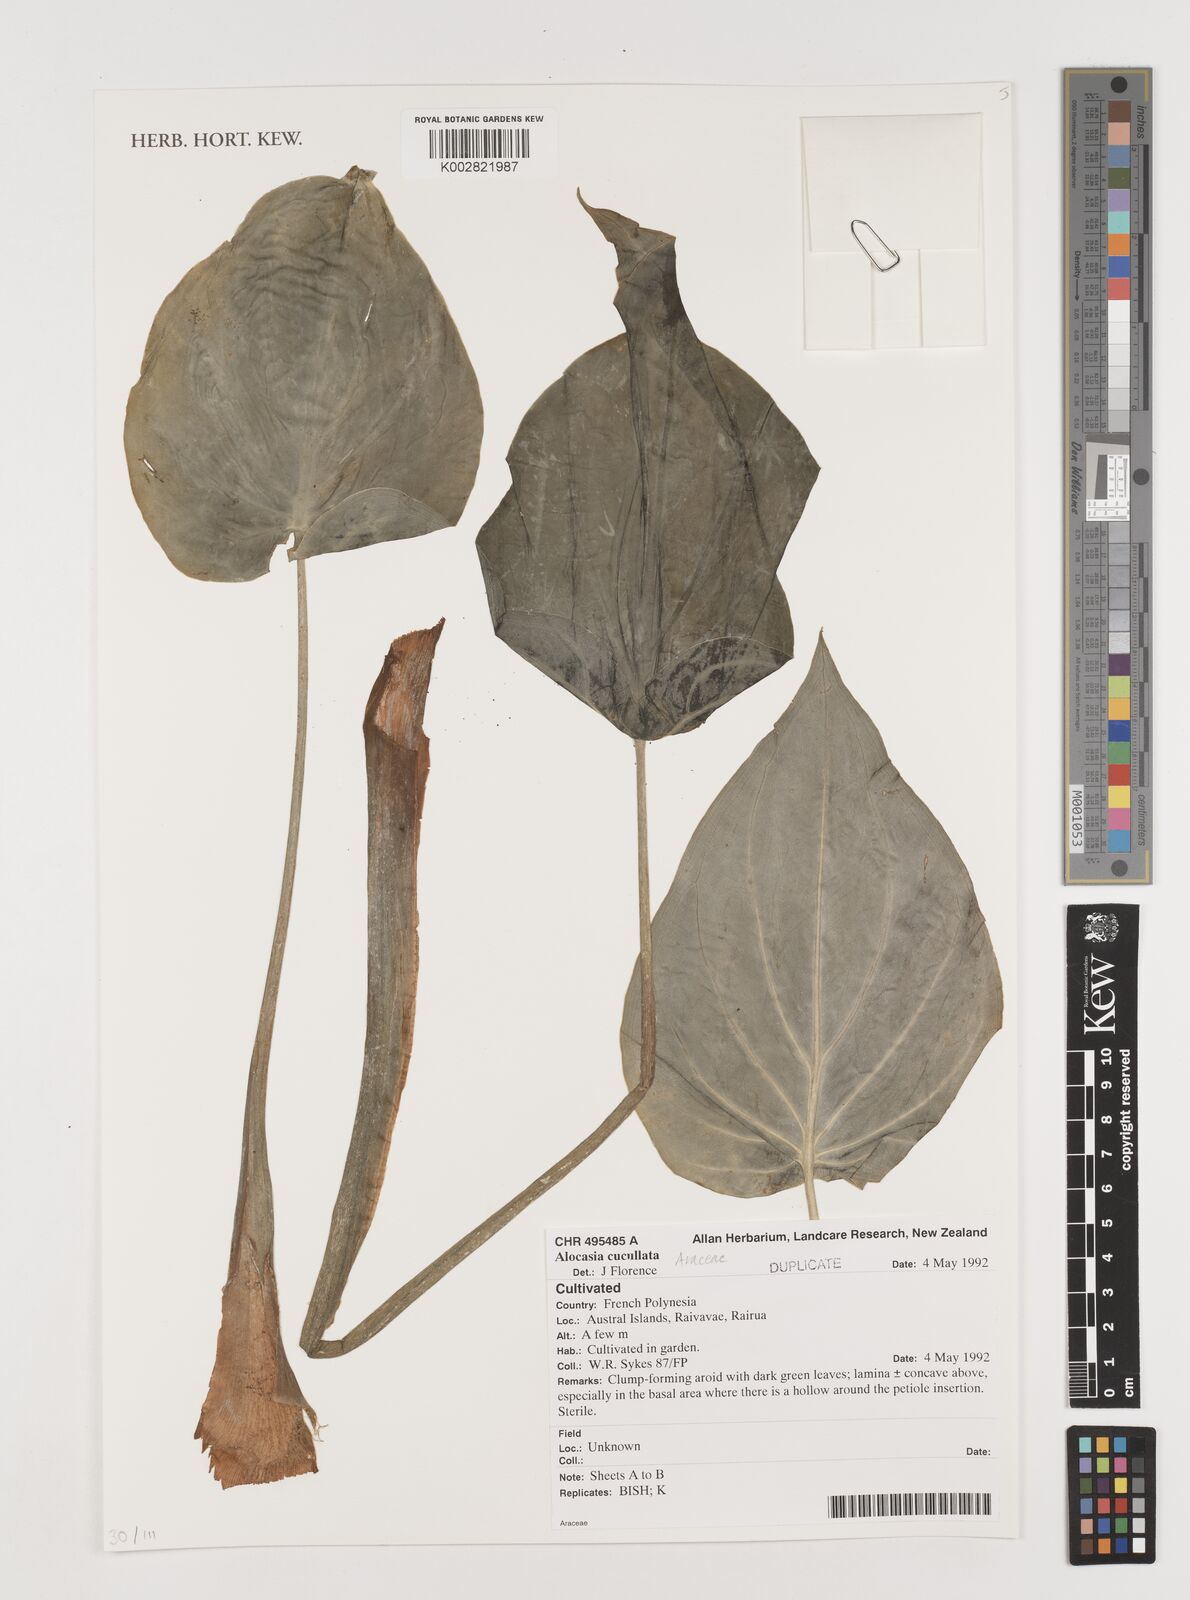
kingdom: Plantae
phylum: Tracheophyta
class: Liliopsida
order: Alismatales
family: Araceae
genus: Alocasia
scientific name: Alocasia cucullata
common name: Buddha's hand
